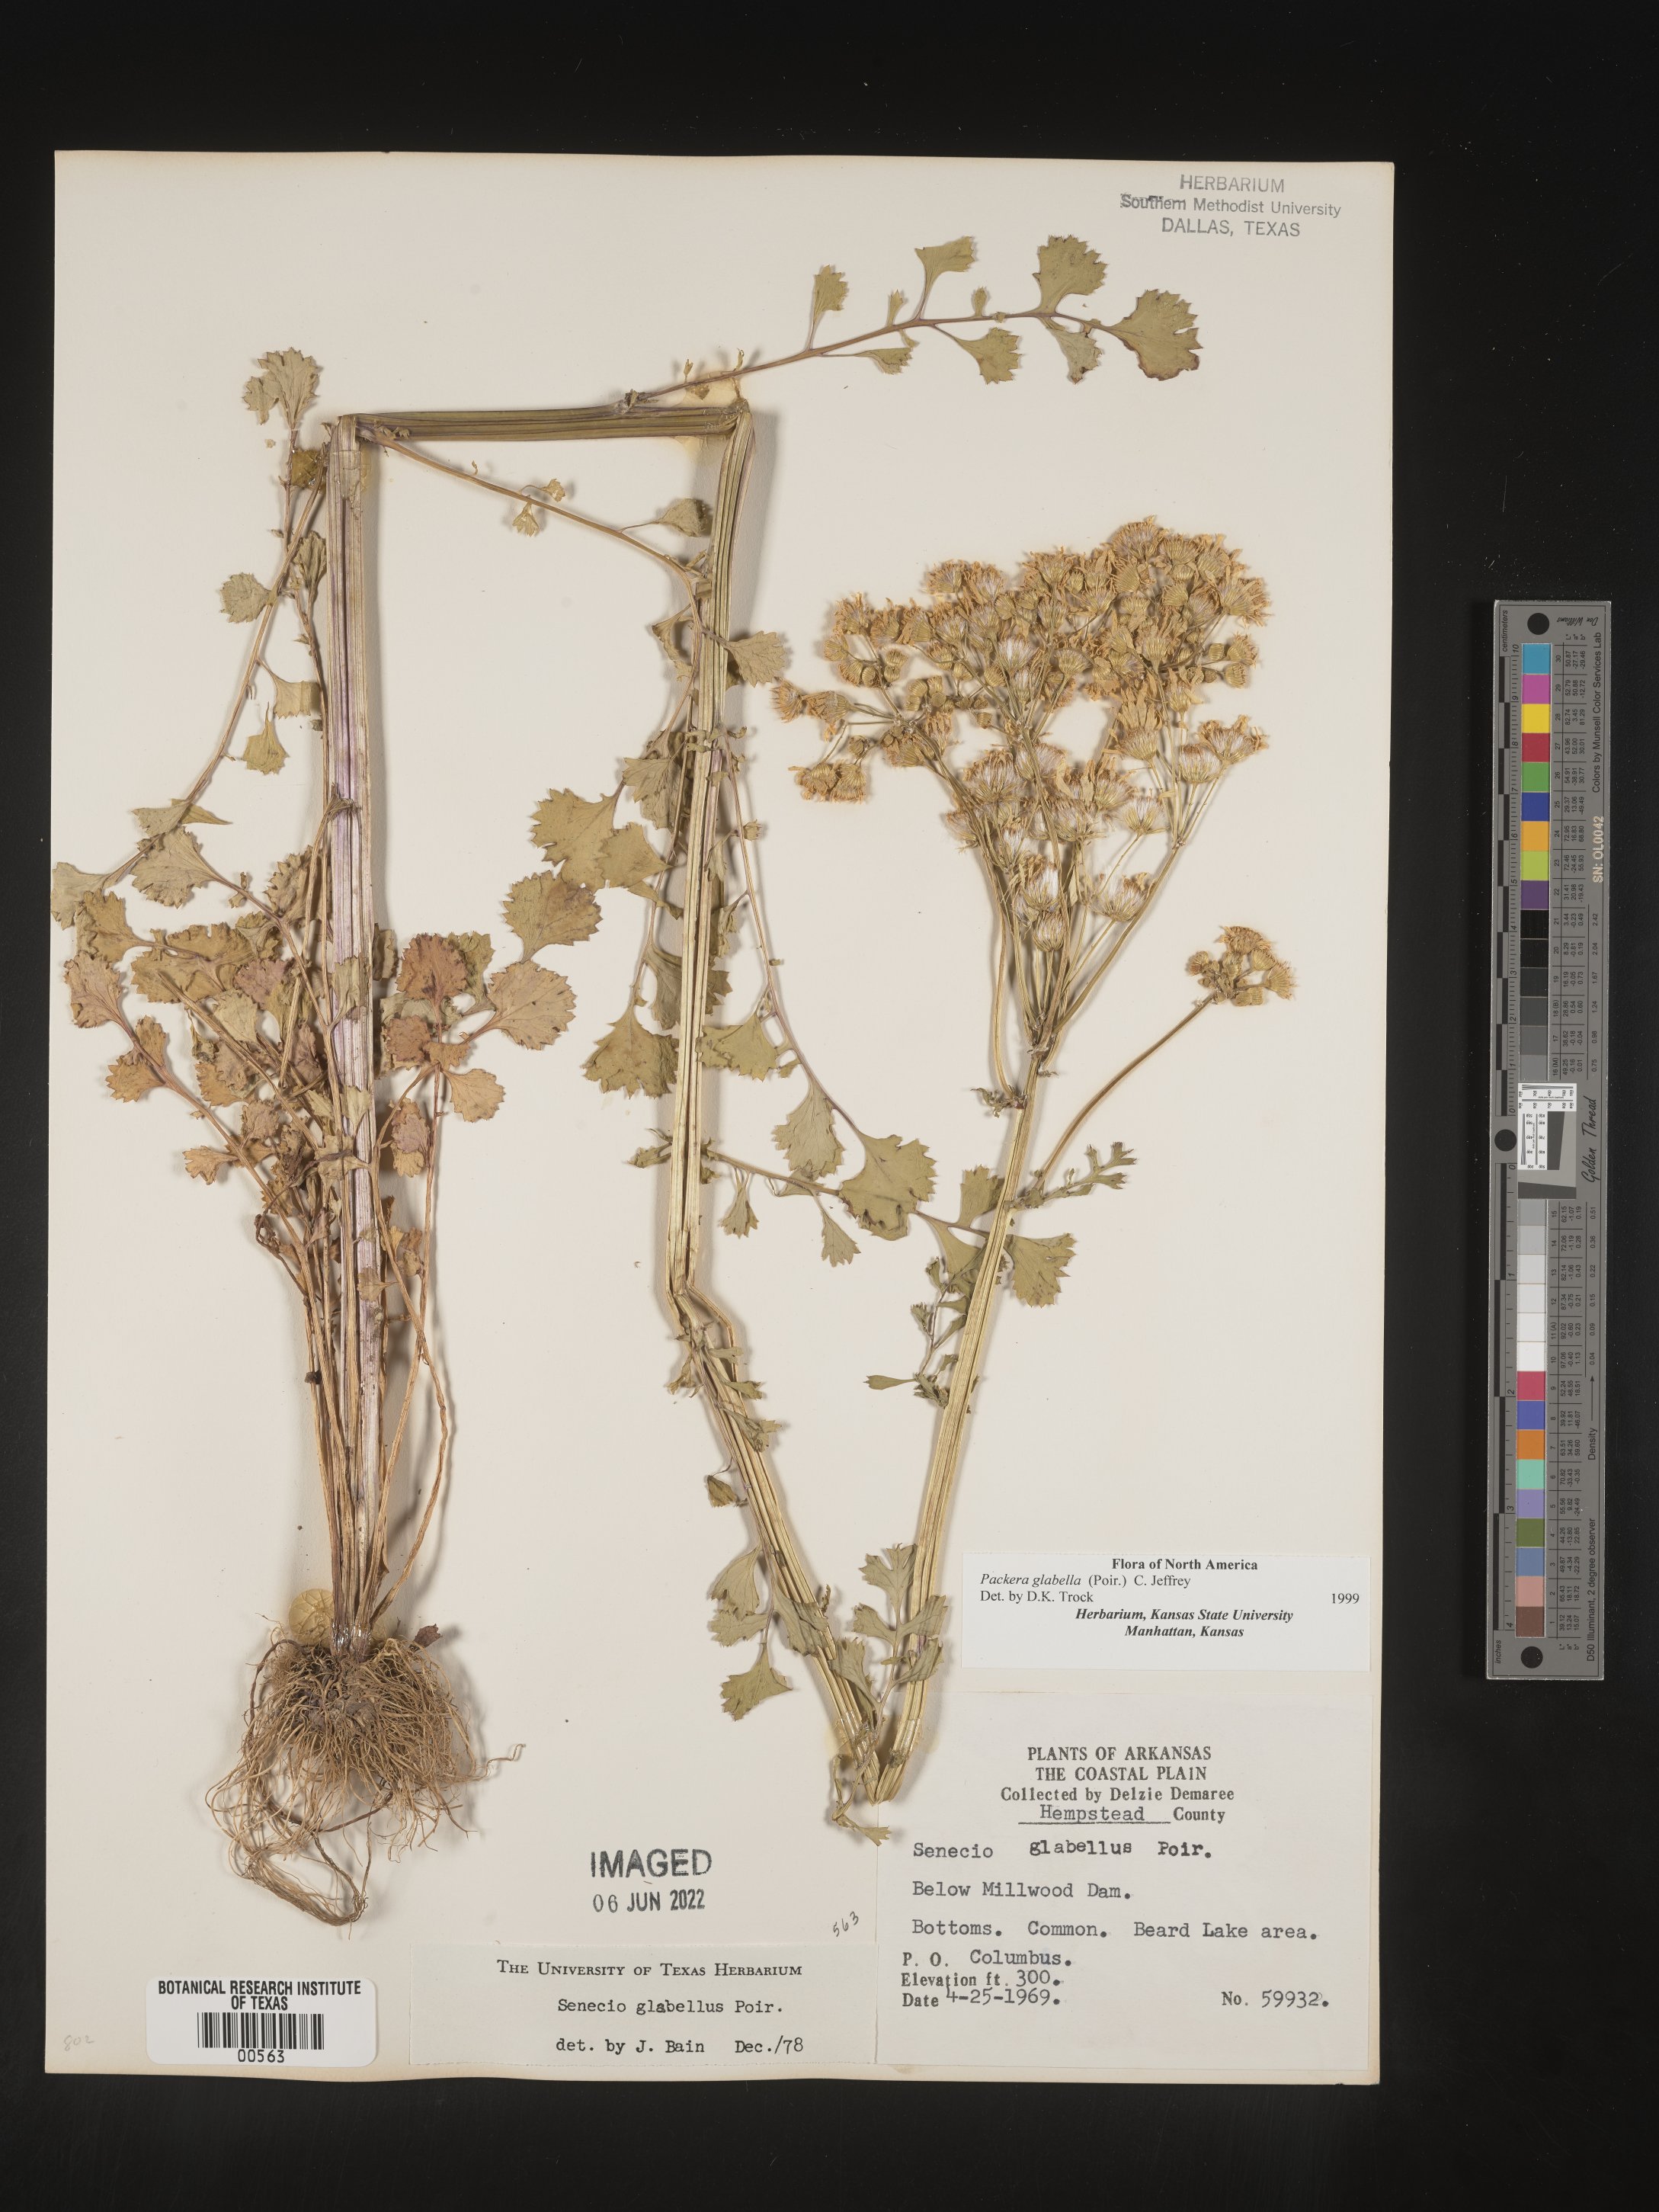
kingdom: Plantae
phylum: Tracheophyta
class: Magnoliopsida
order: Asterales
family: Asteraceae
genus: Packera
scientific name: Packera glabella
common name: Butterweed
